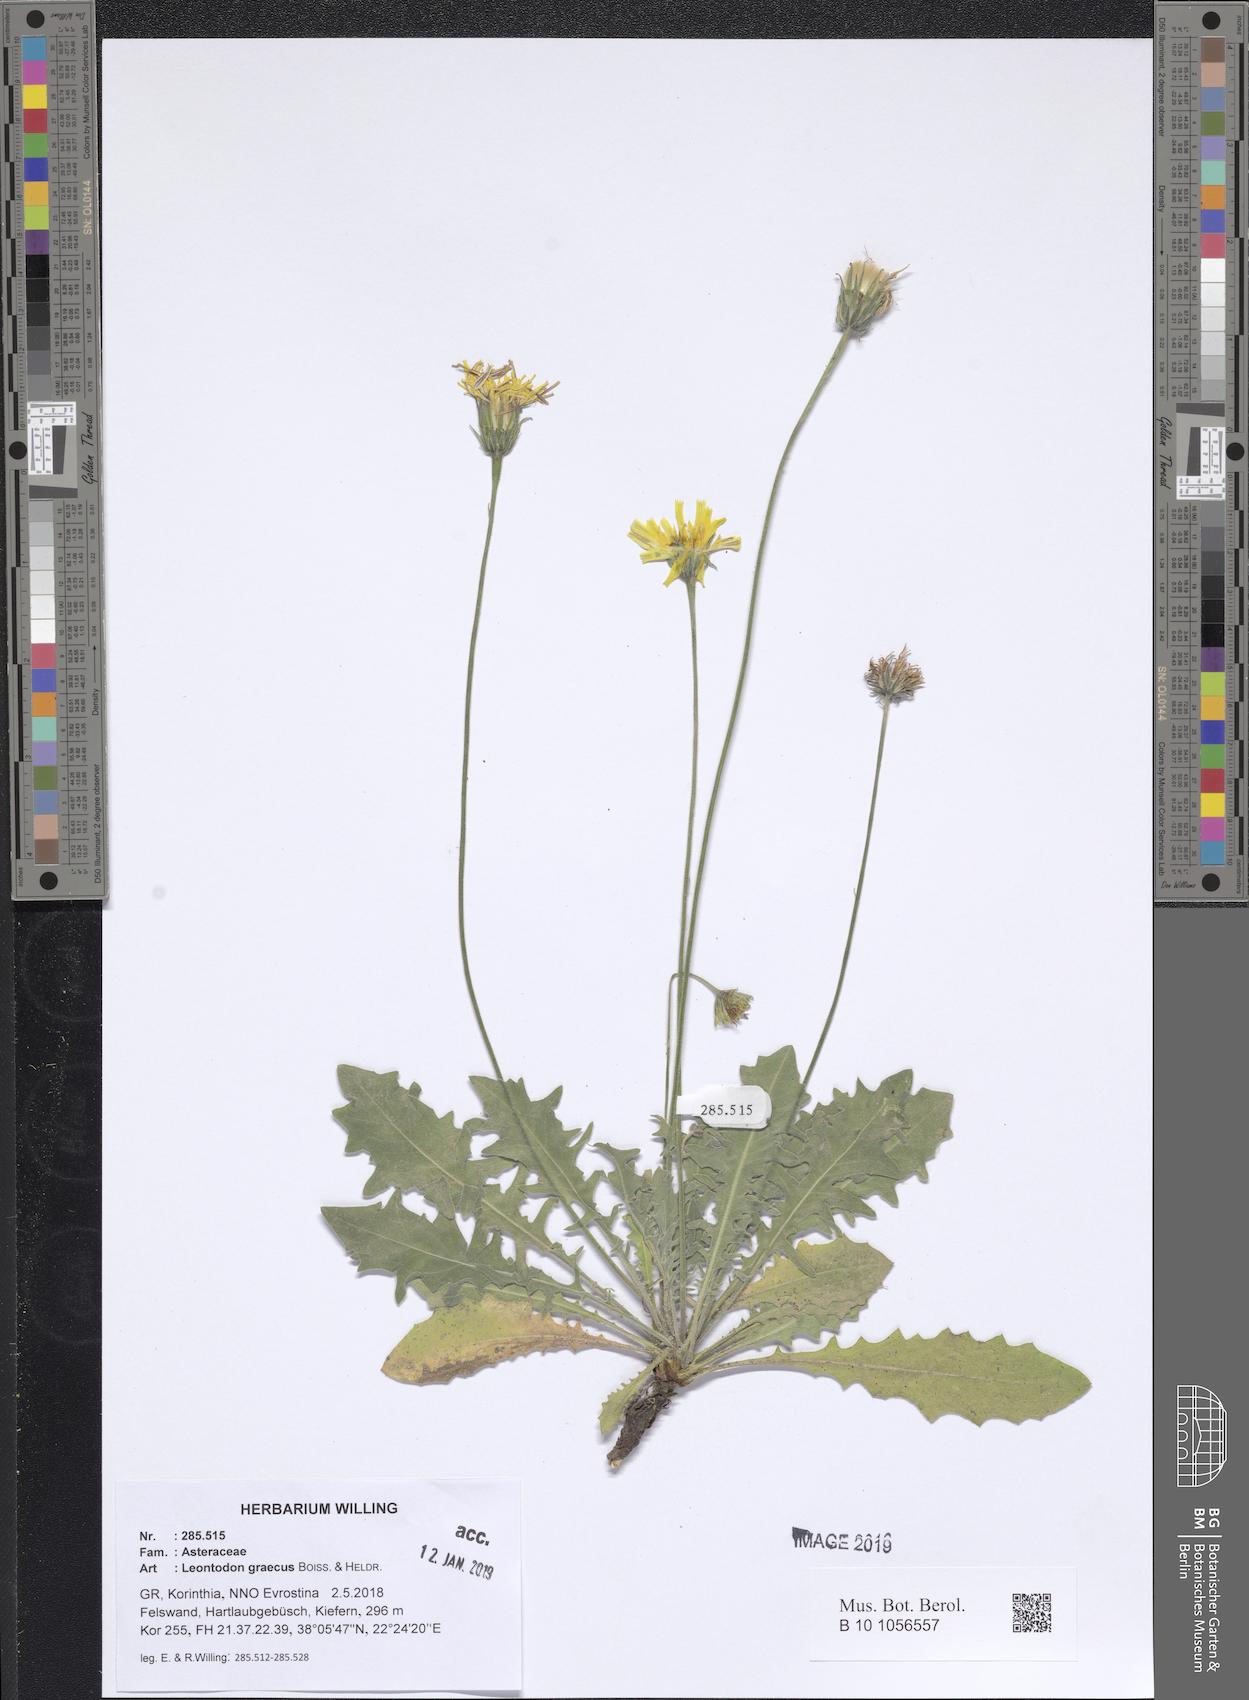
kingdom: Plantae
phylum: Tracheophyta
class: Magnoliopsida
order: Asterales
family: Asteraceae
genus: Leontodon
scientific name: Leontodon graecus
